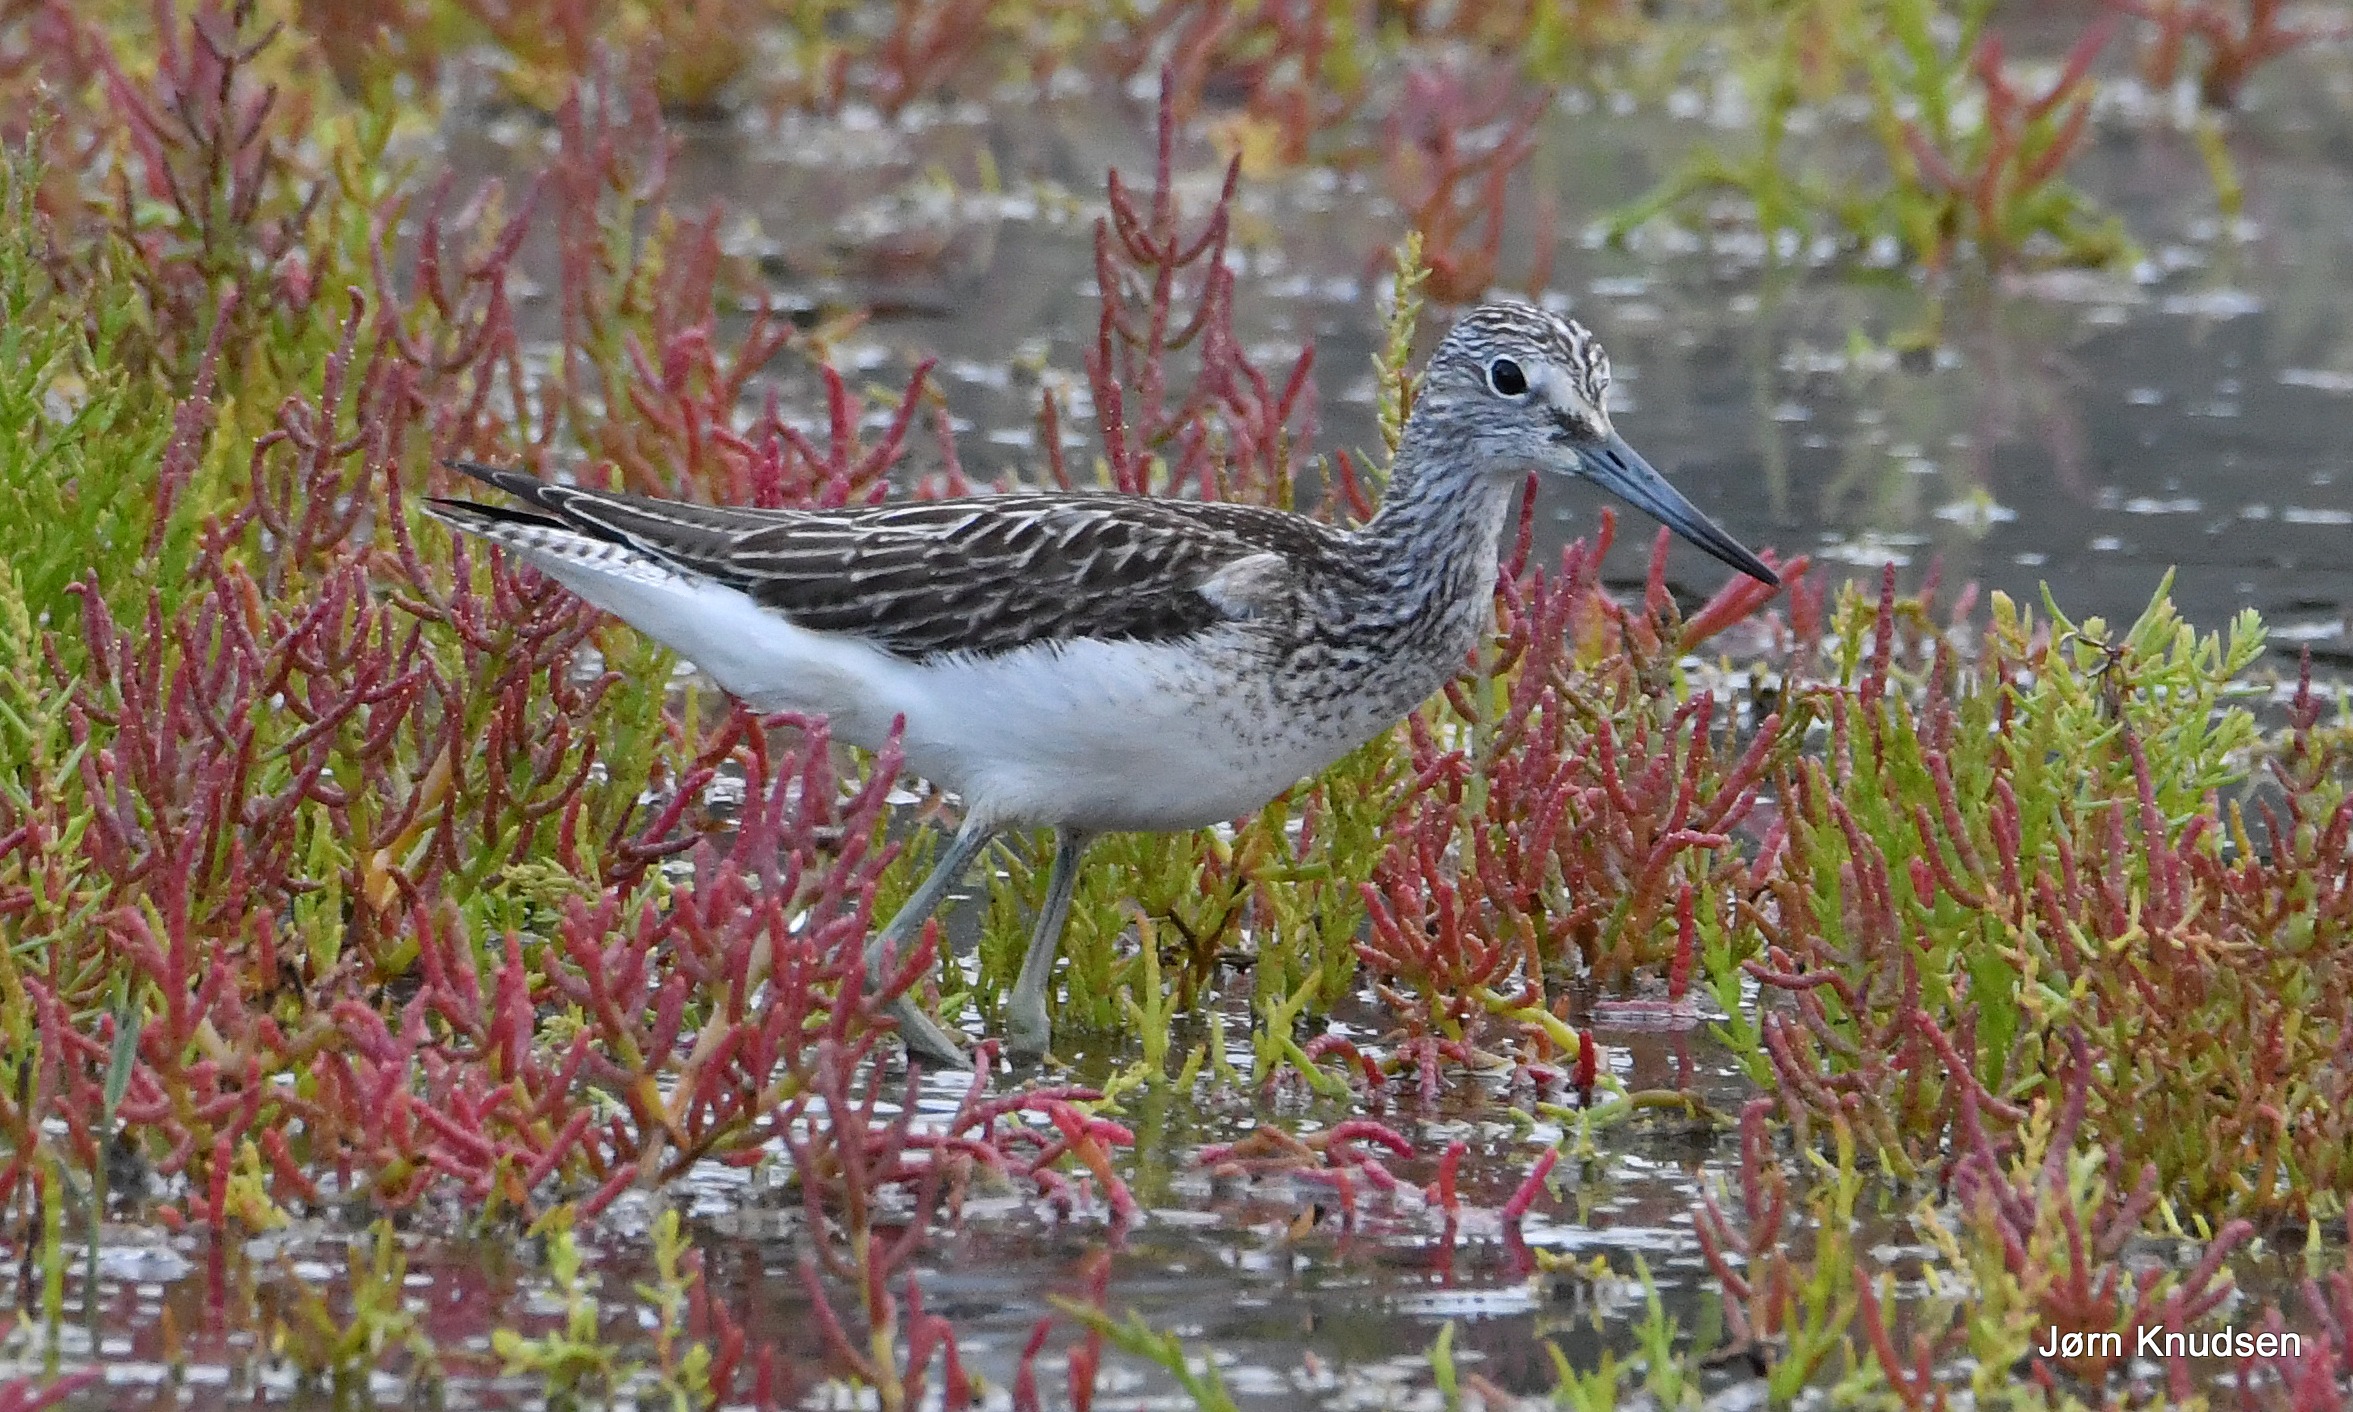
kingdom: Animalia
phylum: Chordata
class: Aves
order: Charadriiformes
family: Scolopacidae
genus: Tringa
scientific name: Tringa nebularia
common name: Hvidklire
